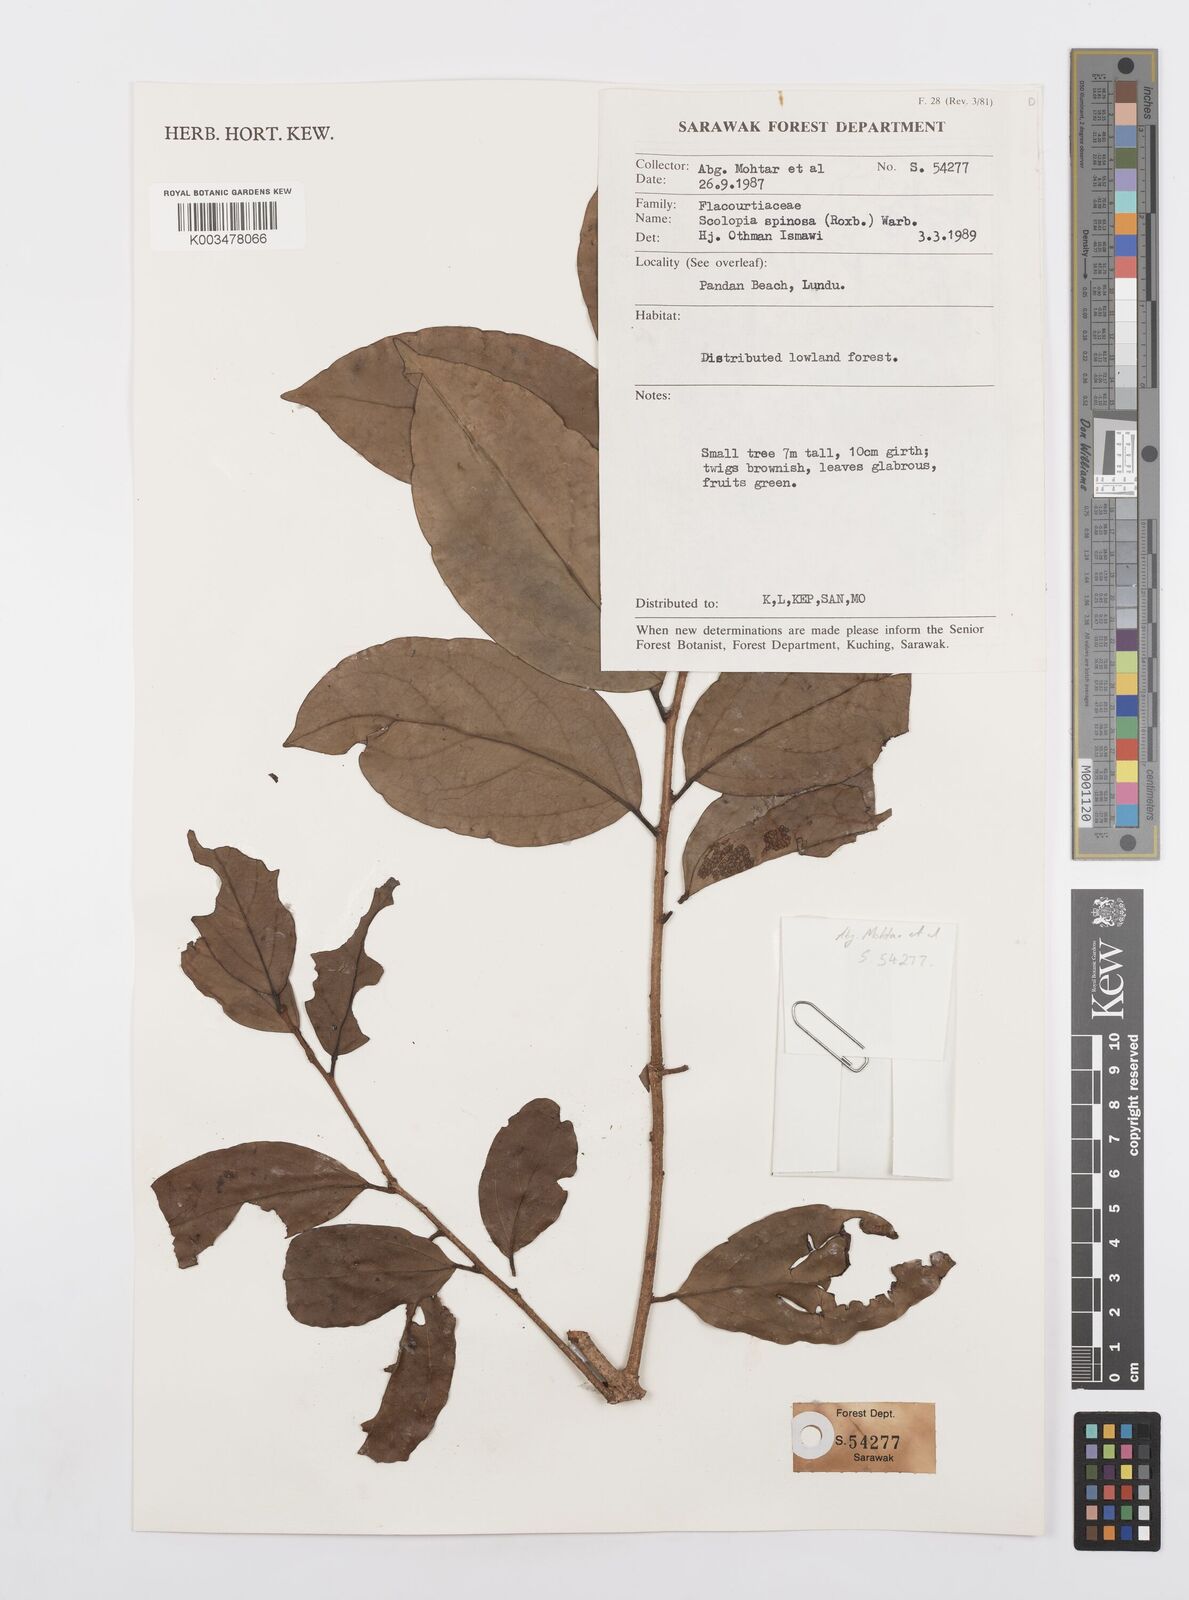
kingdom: Plantae
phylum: Tracheophyta
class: Magnoliopsida
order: Malpighiales
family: Salicaceae
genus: Scolopia
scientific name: Scolopia spinosa
